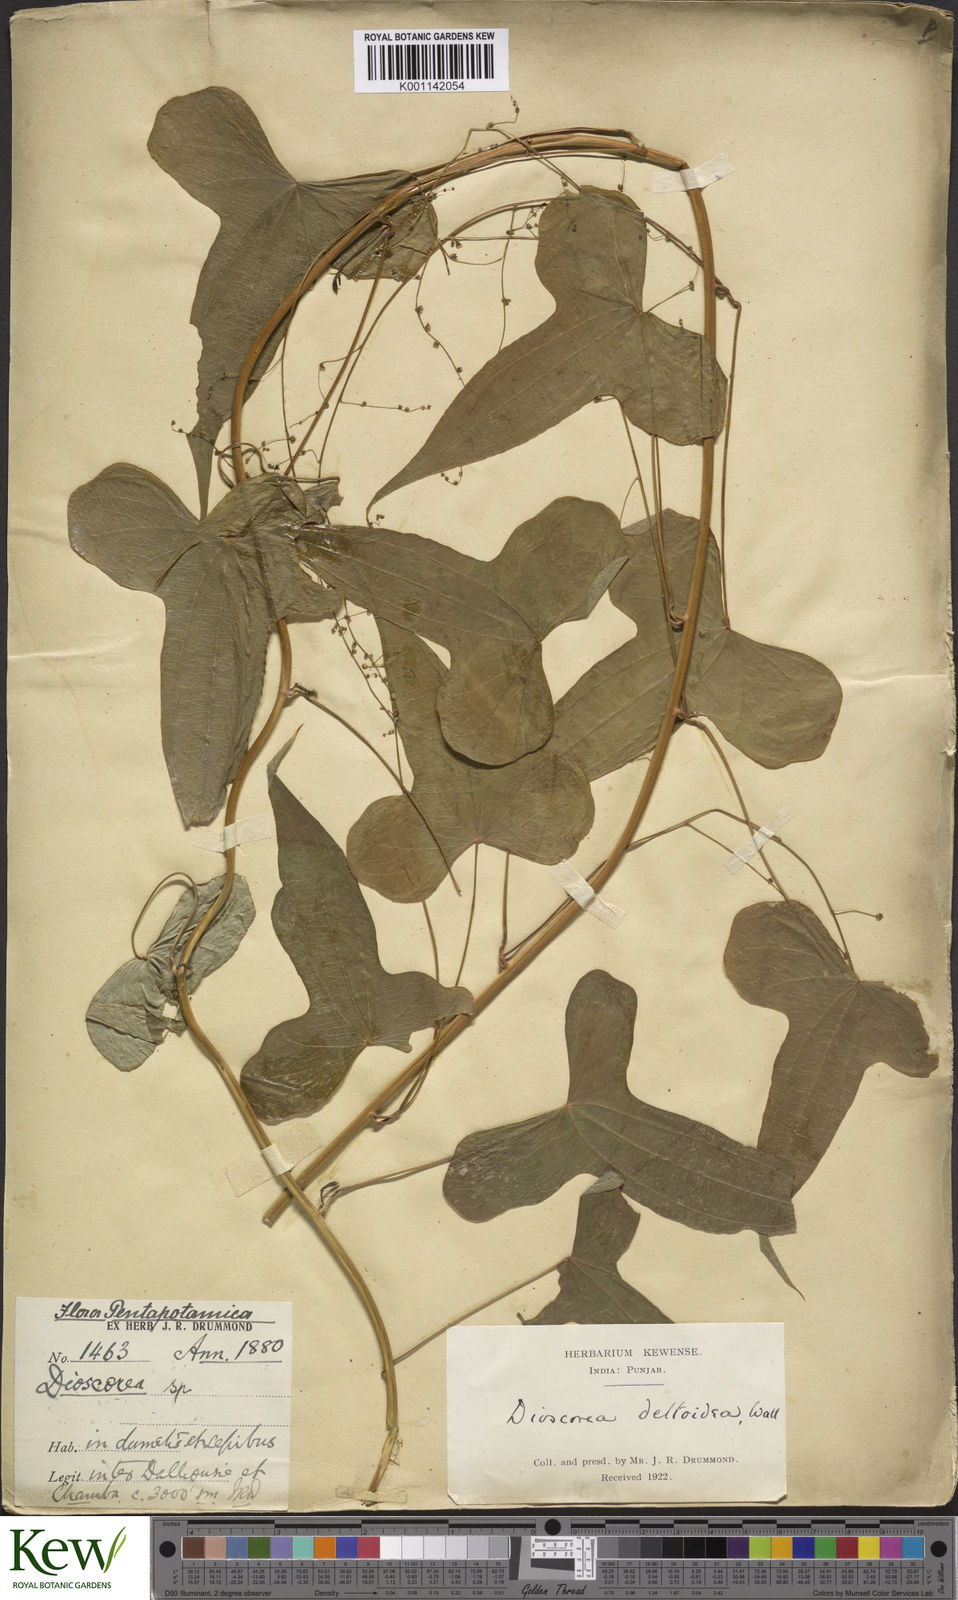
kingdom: Plantae
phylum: Tracheophyta
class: Liliopsida
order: Dioscoreales
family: Dioscoreaceae
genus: Dioscorea
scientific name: Dioscorea deltoidea
